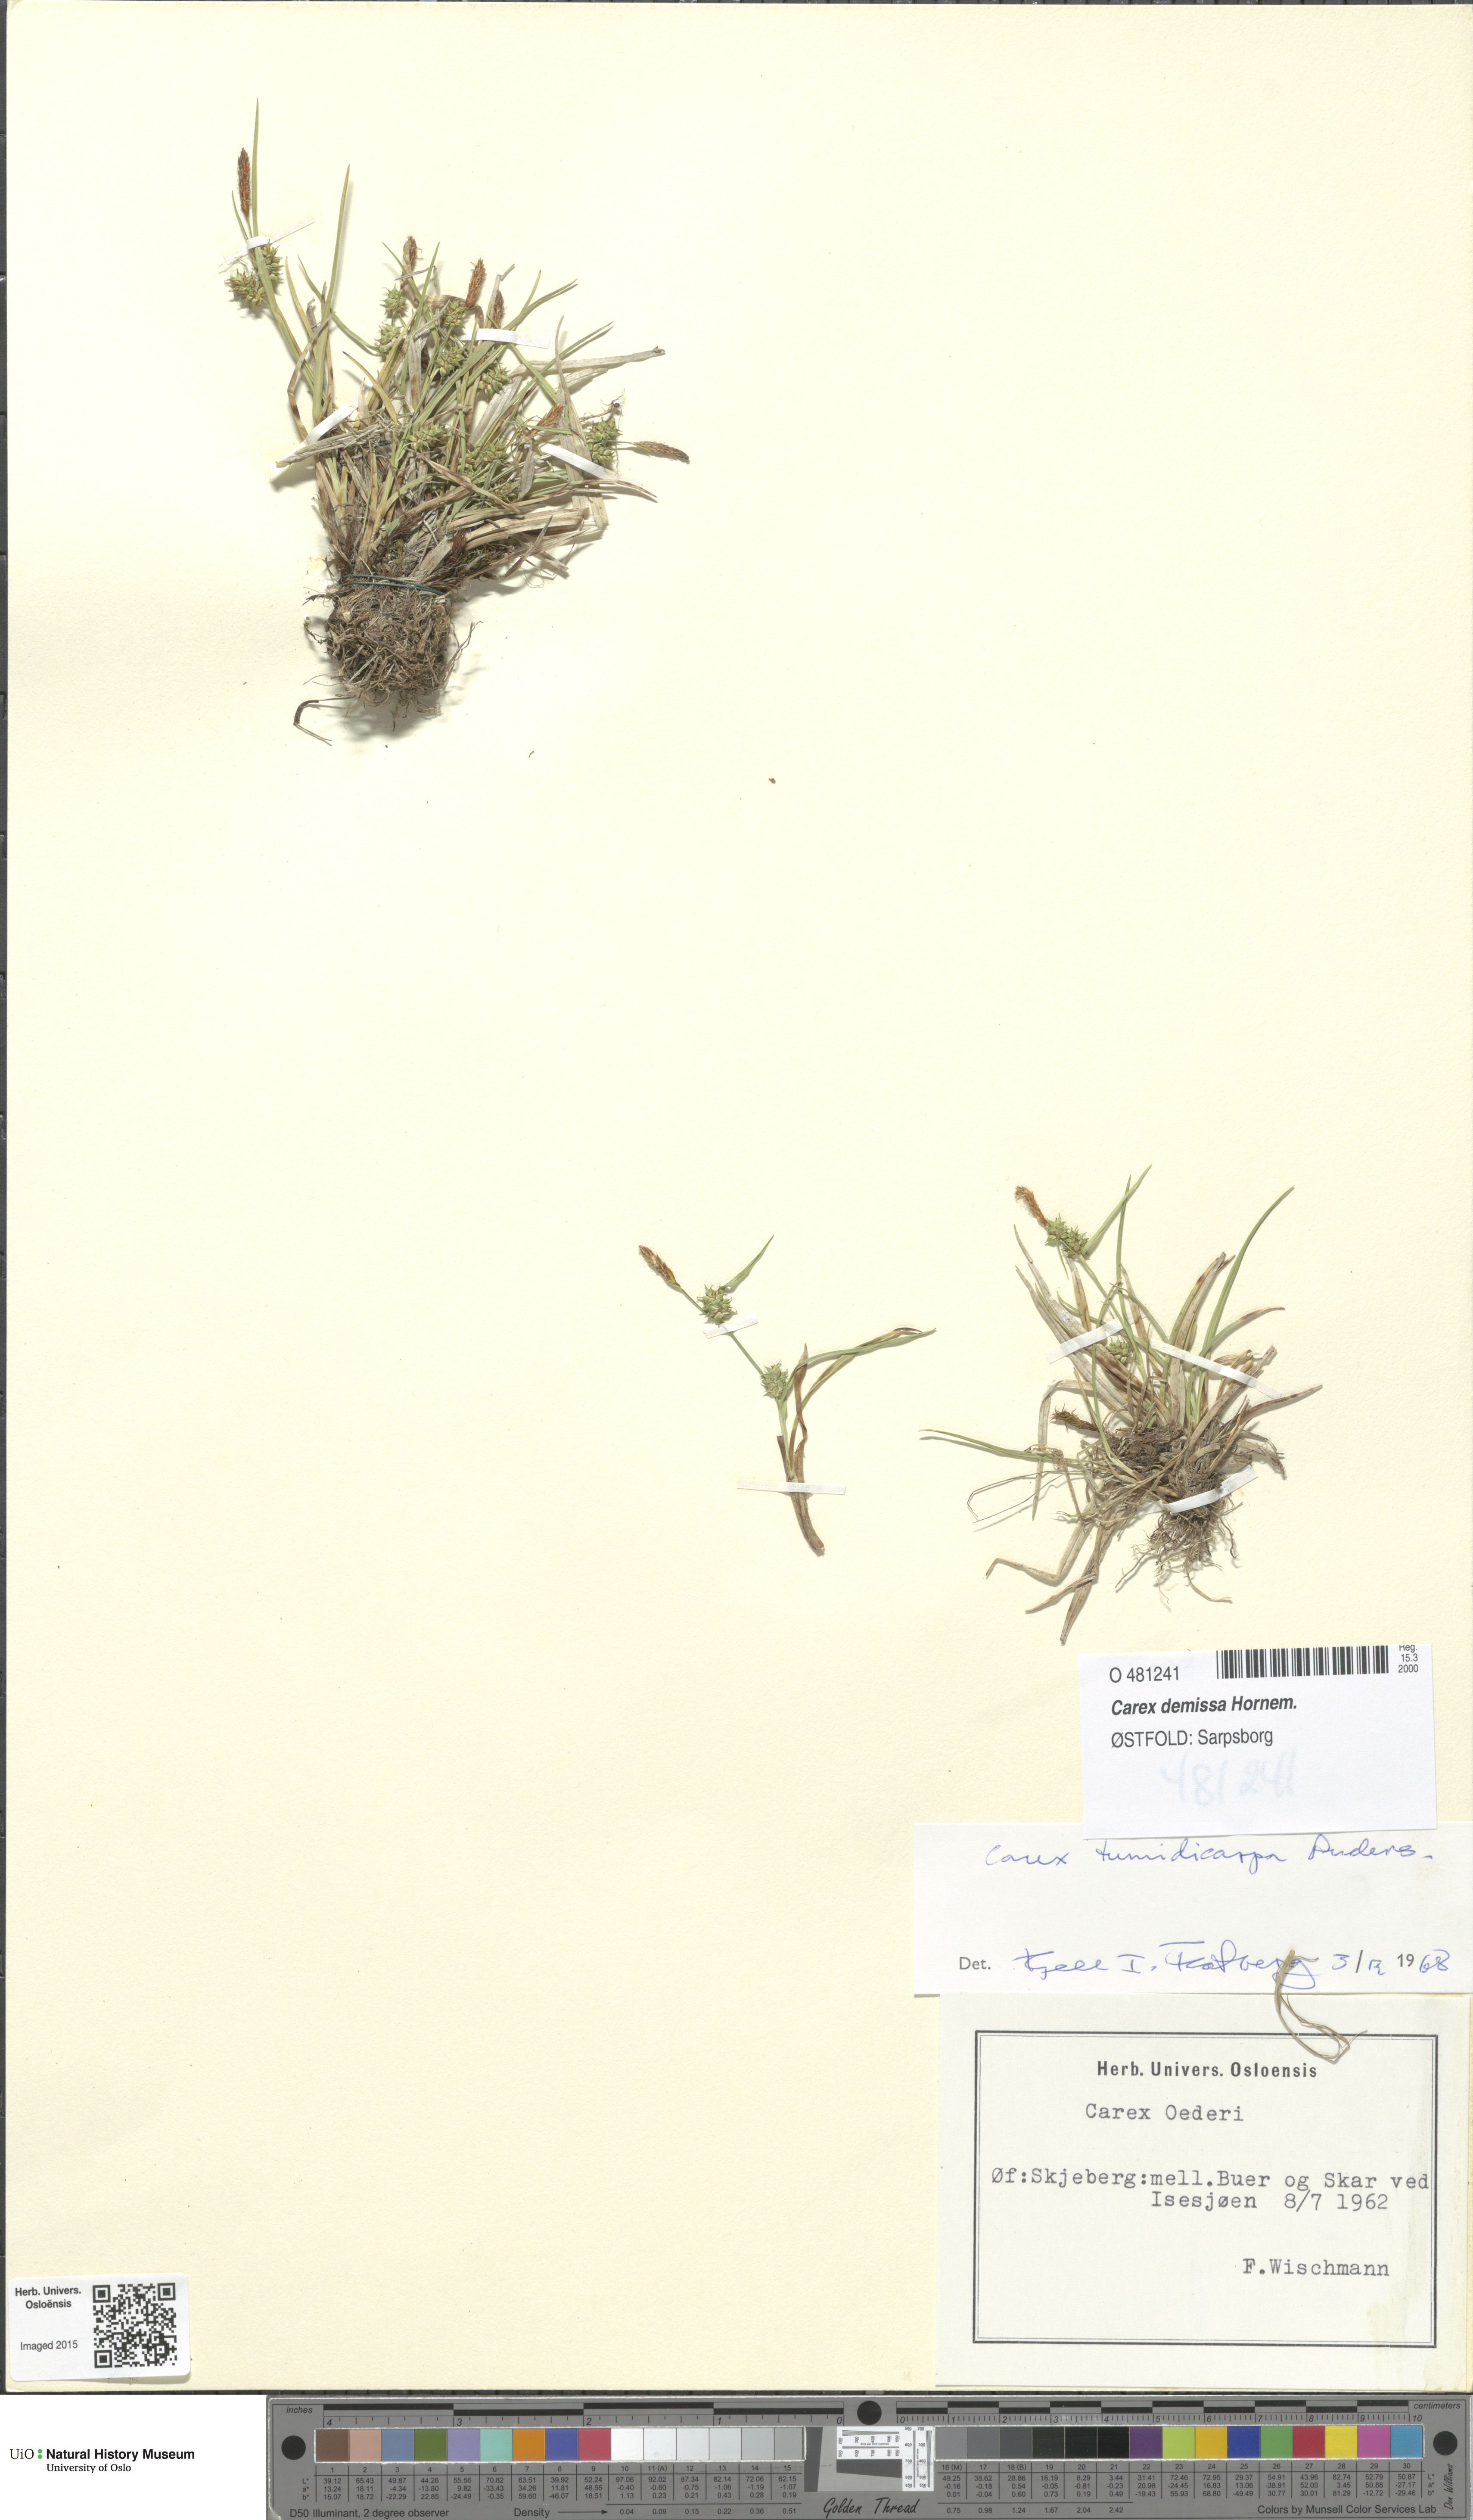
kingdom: Plantae
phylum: Tracheophyta
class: Liliopsida
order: Poales
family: Cyperaceae
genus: Carex
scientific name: Carex demissa
